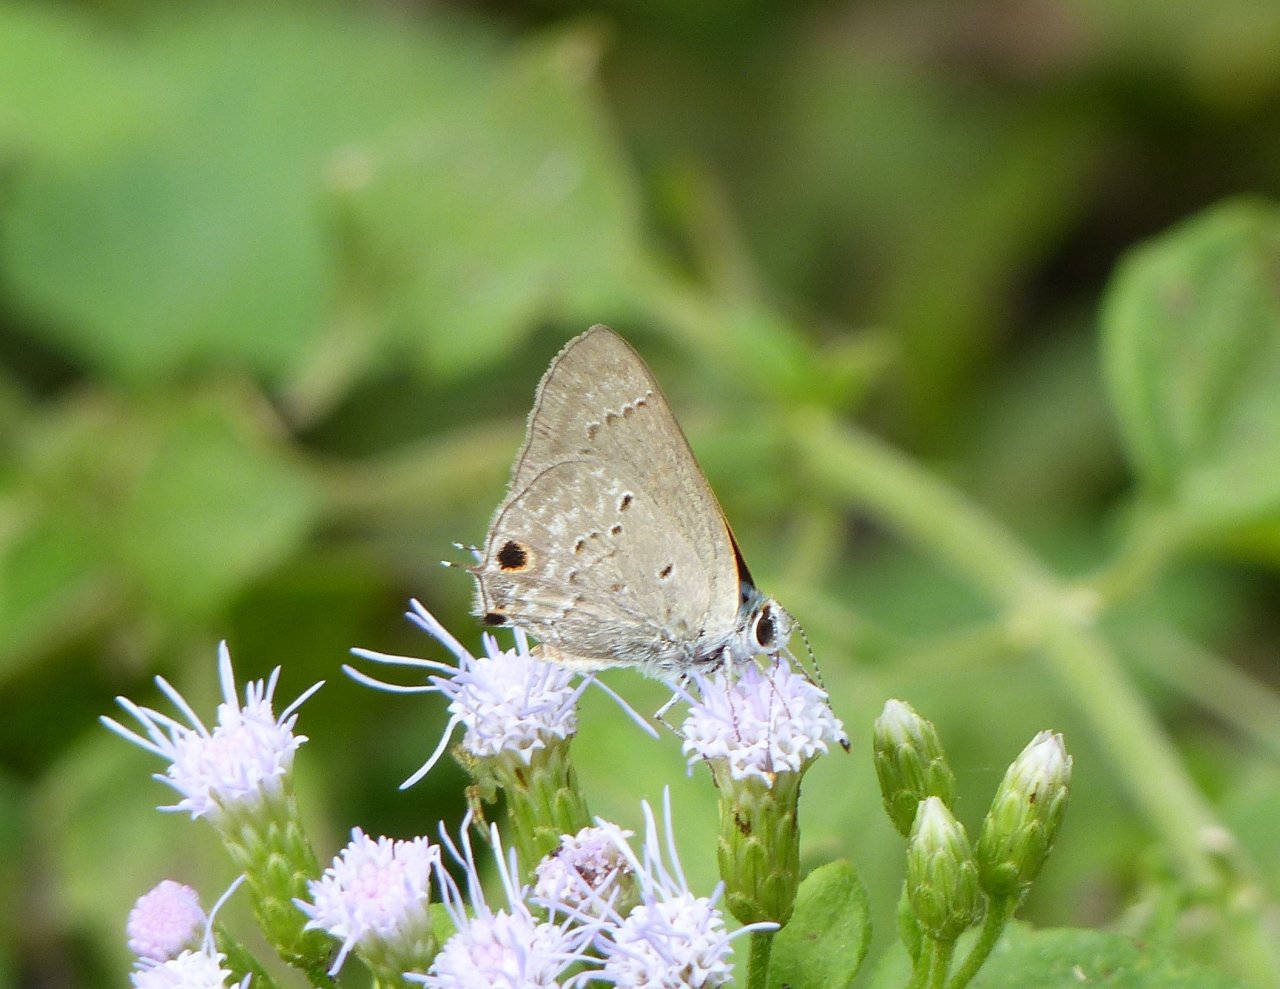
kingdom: Animalia
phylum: Arthropoda
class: Insecta
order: Lepidoptera
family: Lycaenidae
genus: Callicista
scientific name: Callicista columella
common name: Mallow Scrub-Hairstreak
